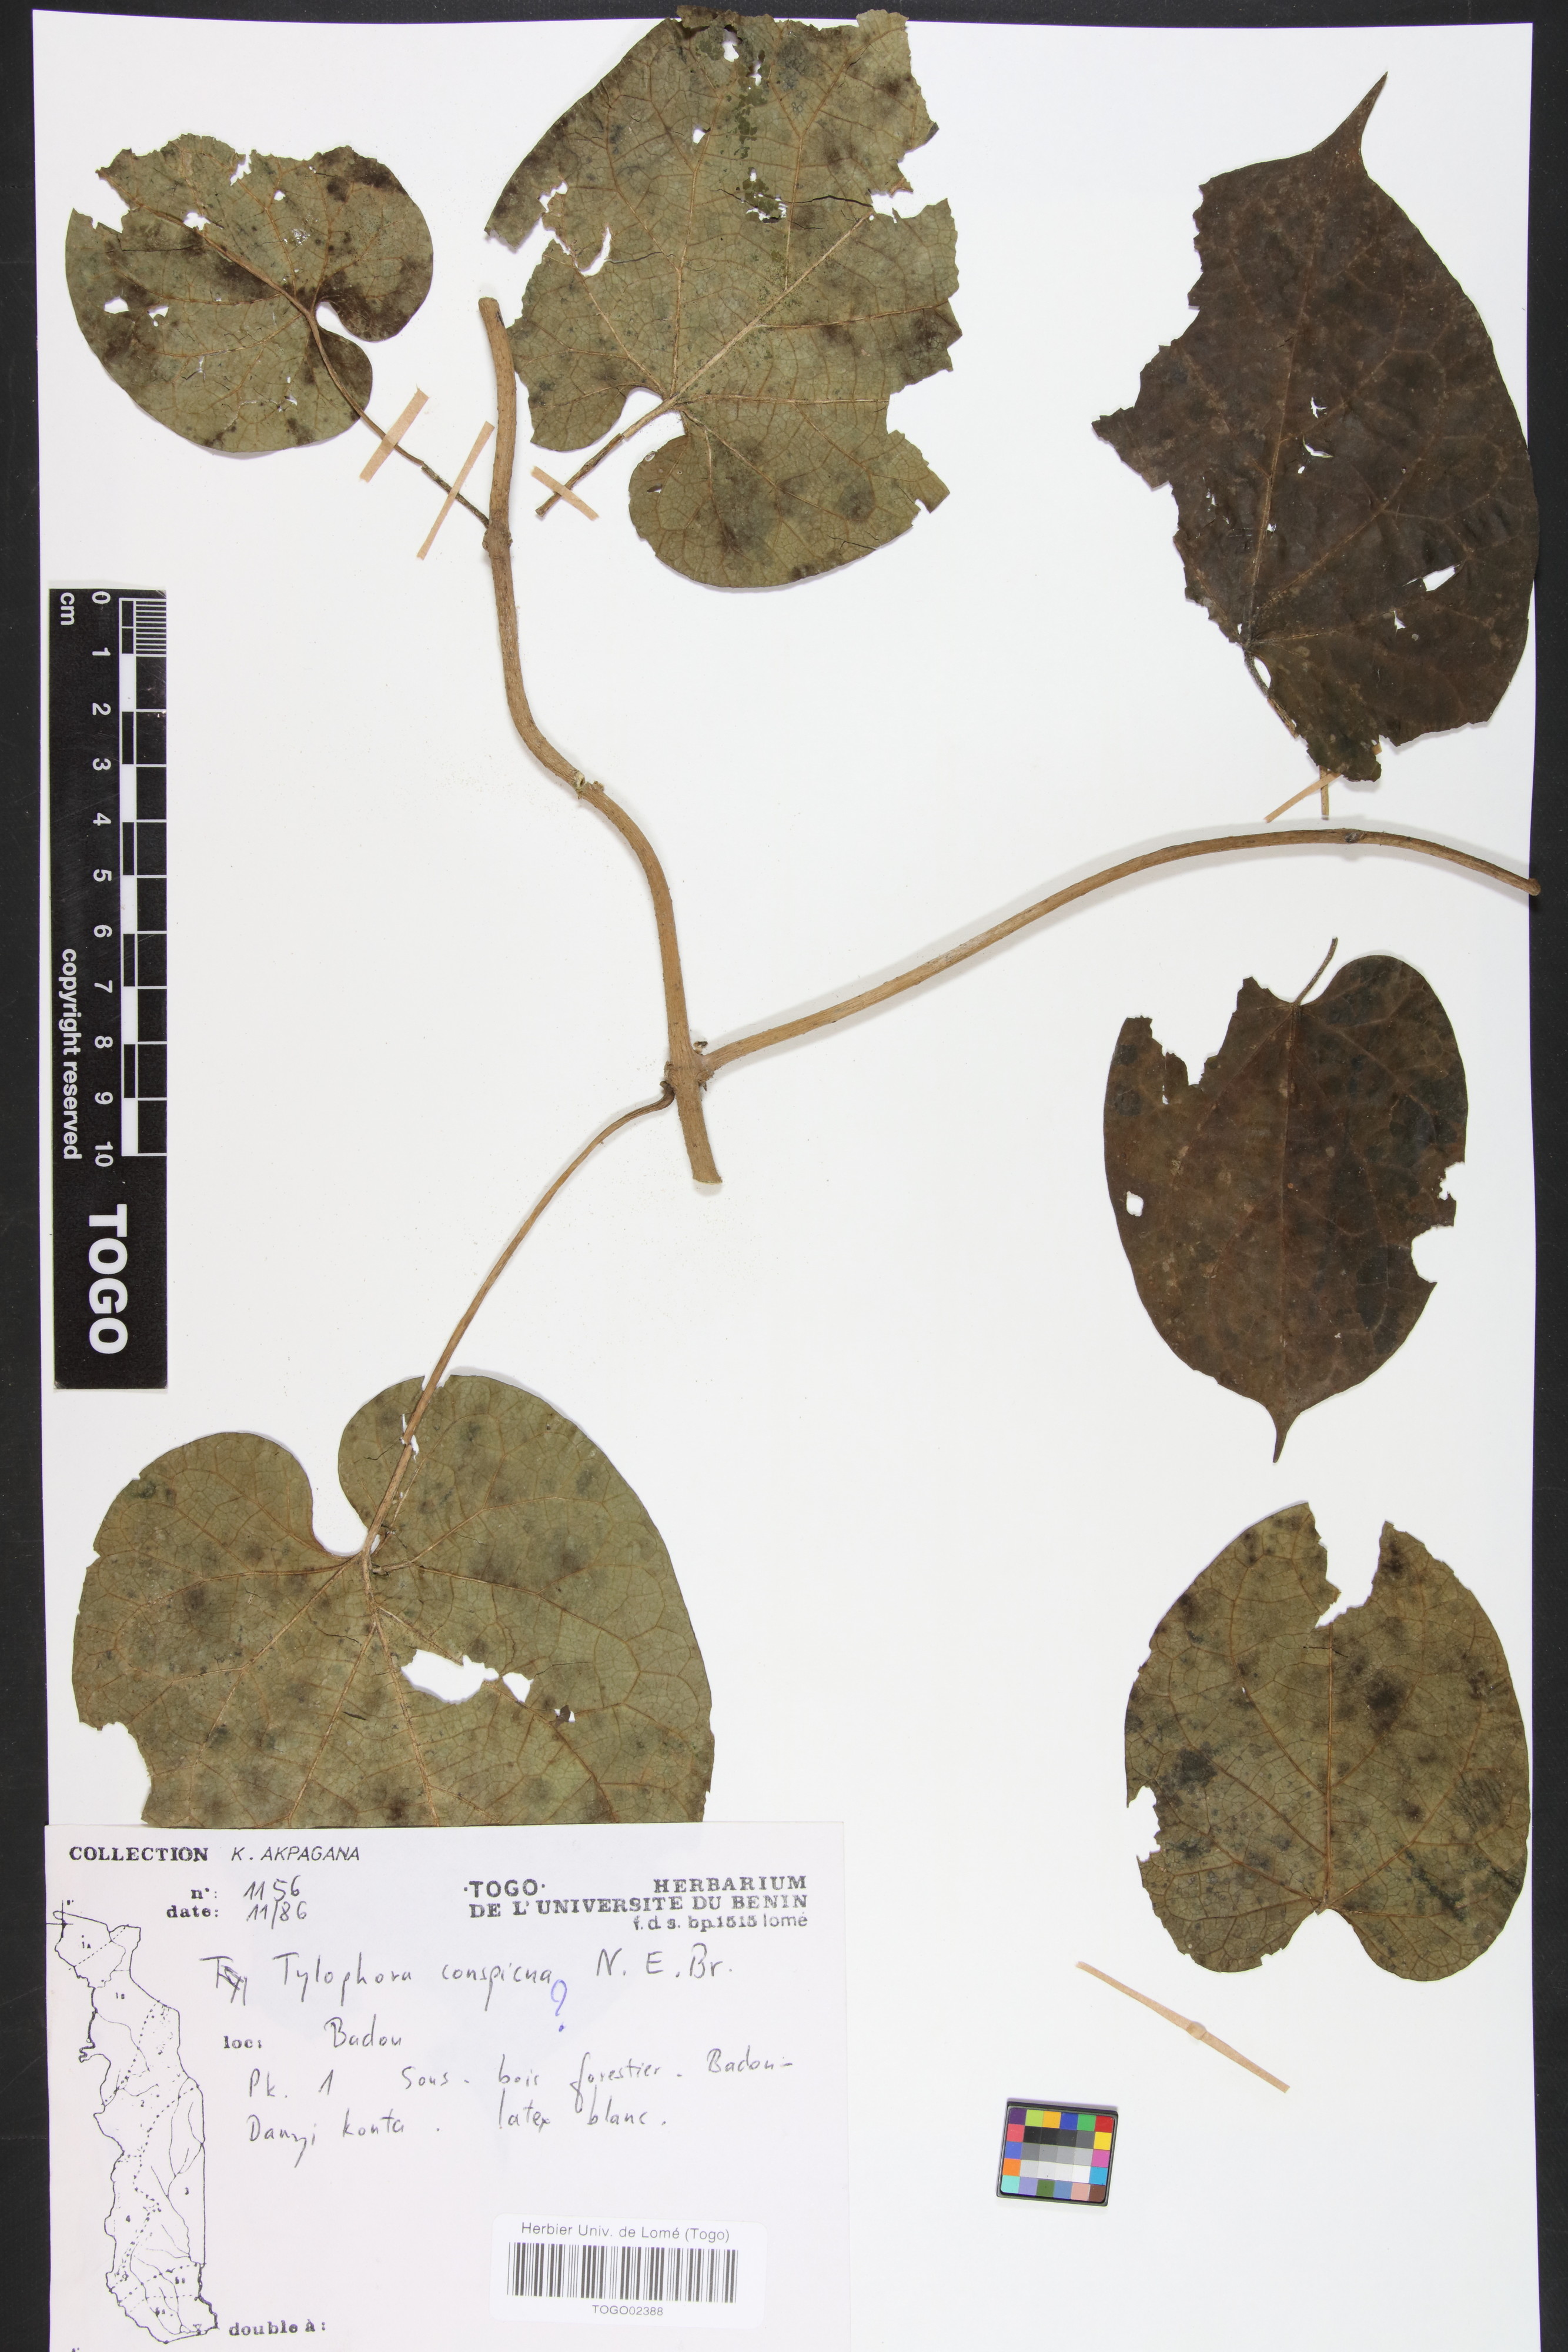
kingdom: Plantae
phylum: Tracheophyta
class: Magnoliopsida
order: Gentianales
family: Apocynaceae
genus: Vincetoxicum
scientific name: Vincetoxicum conspicuum
